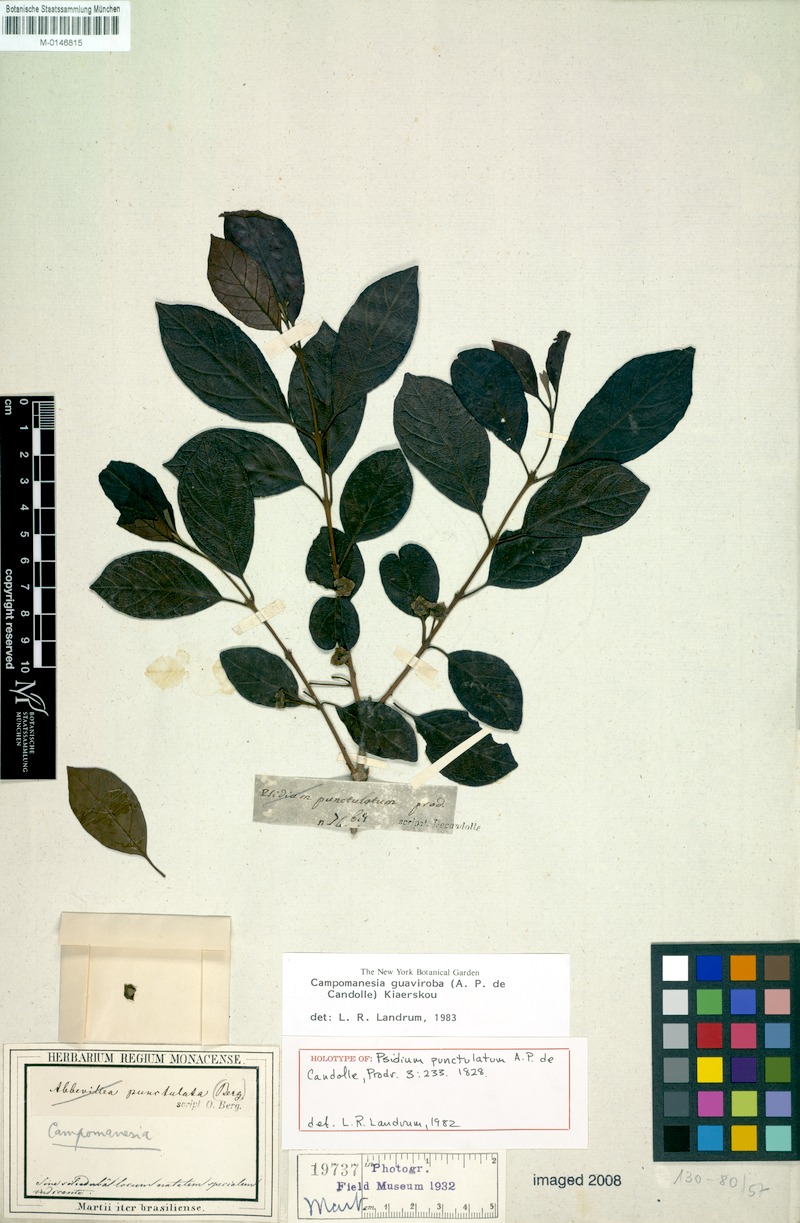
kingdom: Plantae
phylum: Tracheophyta
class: Magnoliopsida
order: Myrtales
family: Myrtaceae
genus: Campomanesia
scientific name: Campomanesia guaviroba
